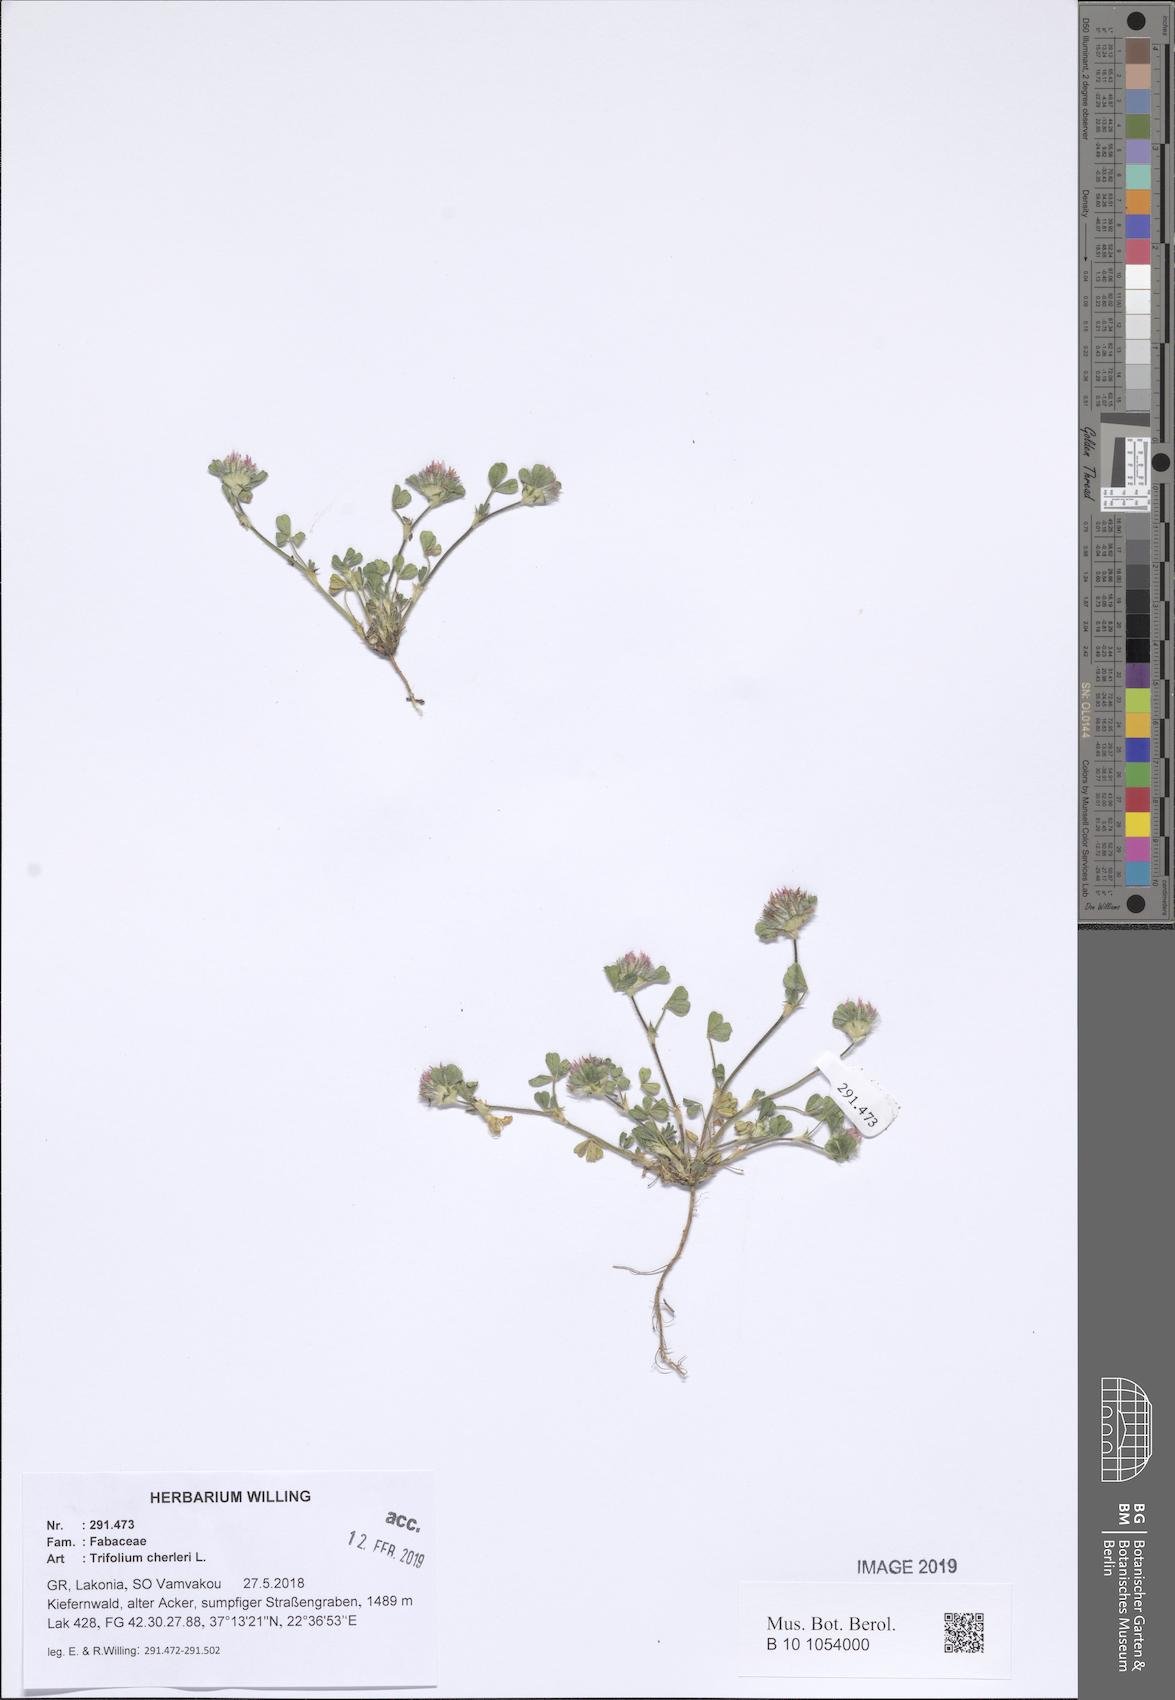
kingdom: Plantae
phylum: Tracheophyta
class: Magnoliopsida
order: Fabales
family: Fabaceae
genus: Trifolium
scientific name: Trifolium cherleri
